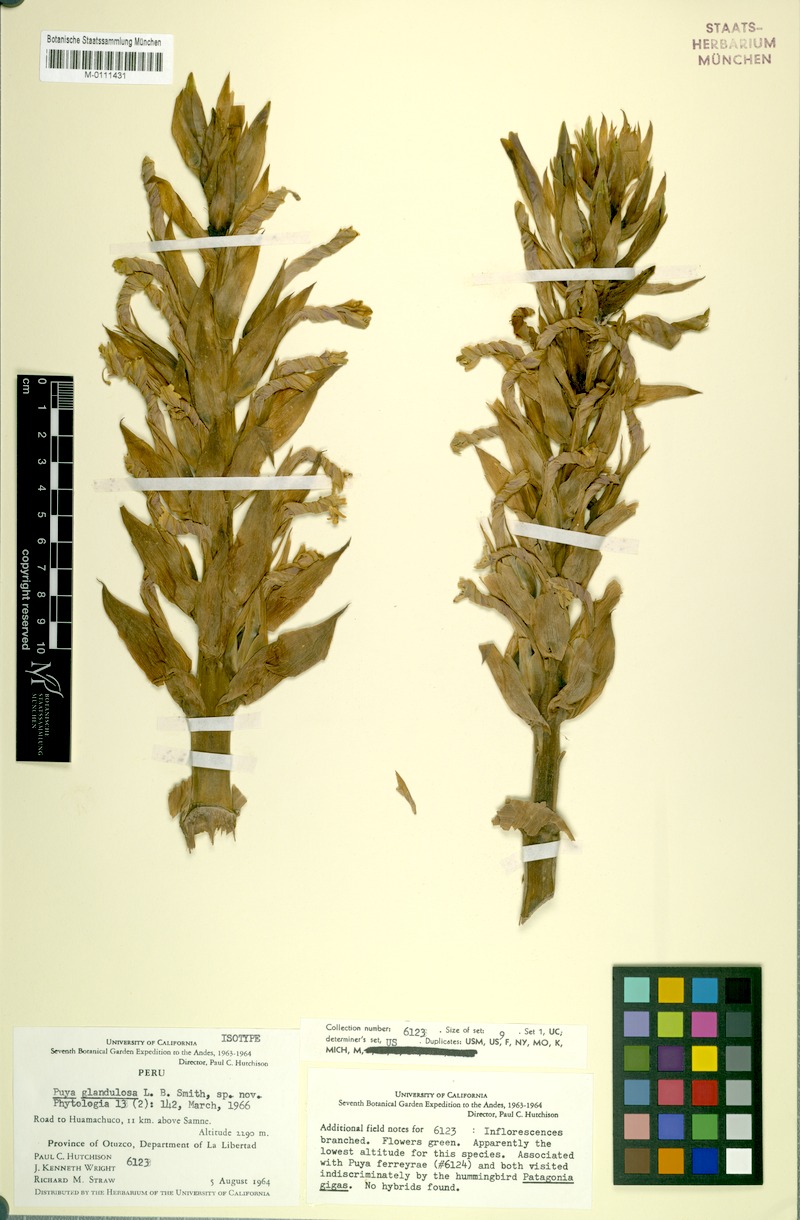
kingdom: Plantae
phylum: Tracheophyta
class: Liliopsida
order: Poales
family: Bromeliaceae
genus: Puya
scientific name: Puya glandulosa
